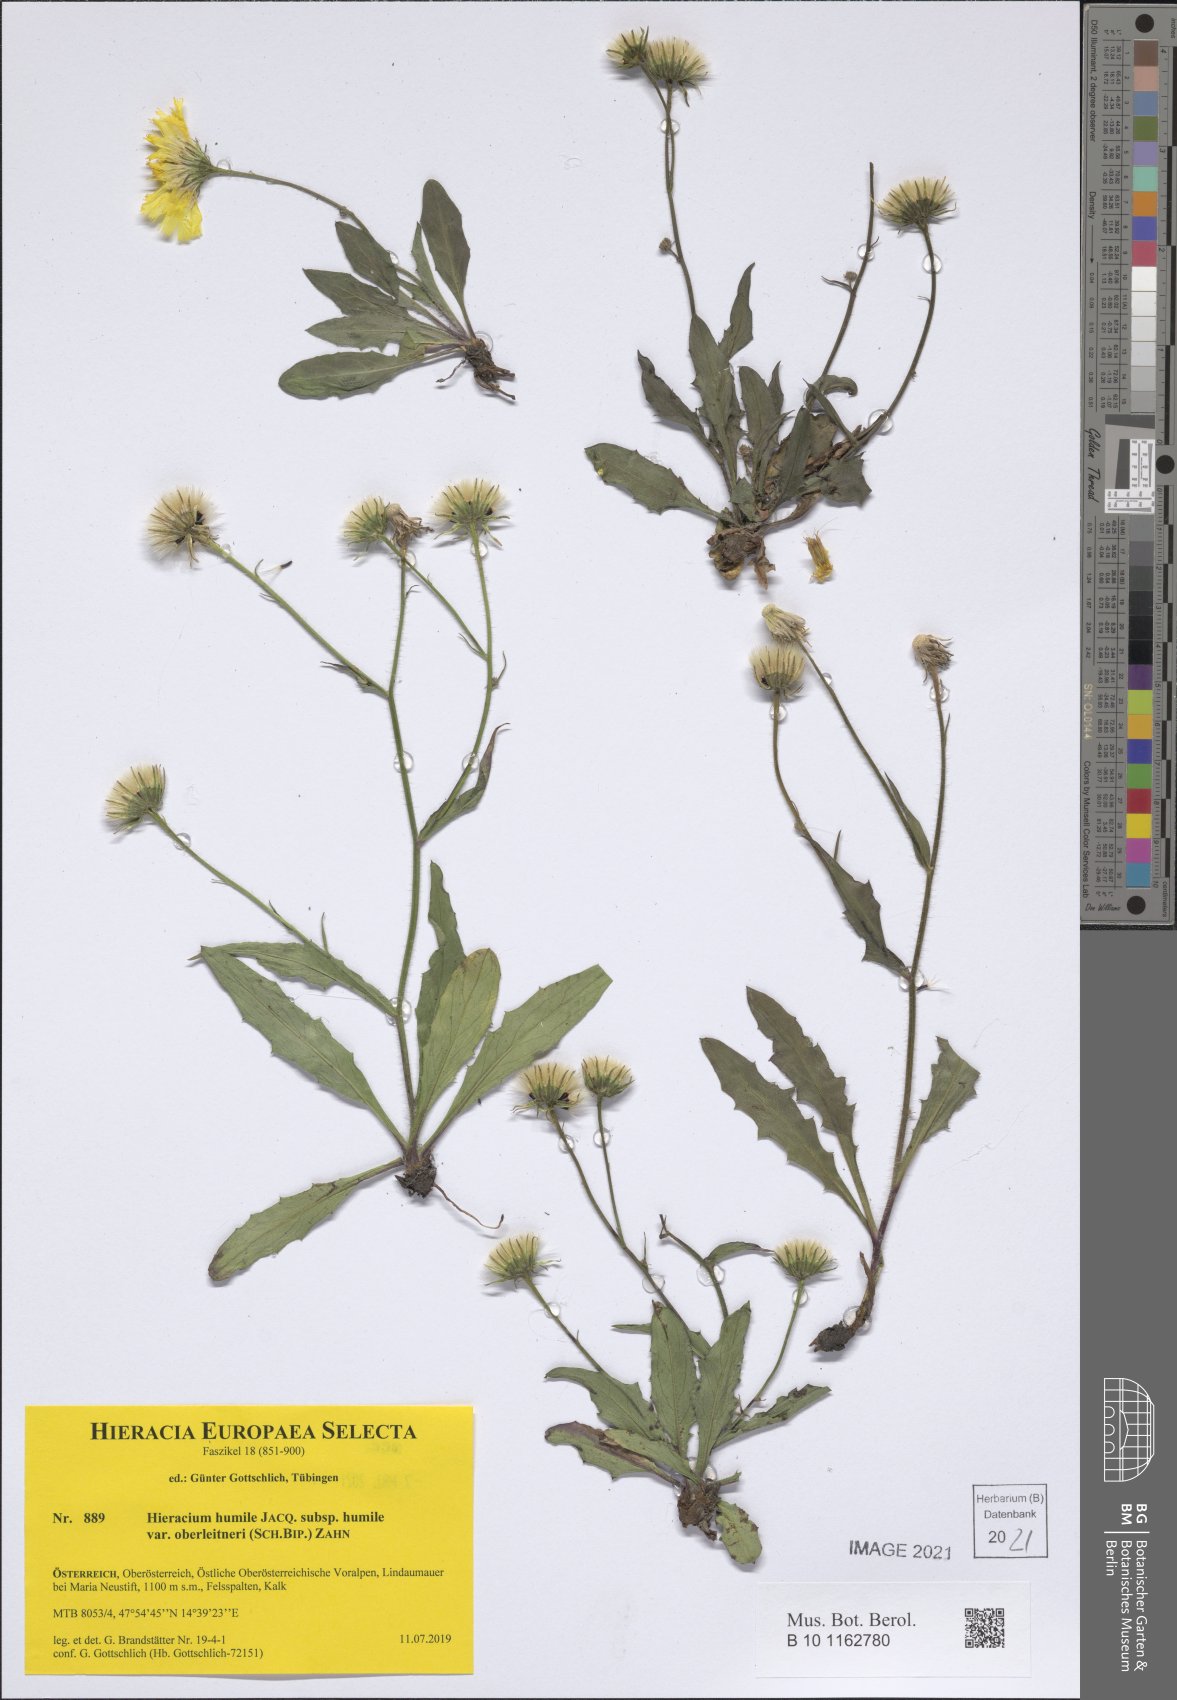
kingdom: Plantae
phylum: Tracheophyta
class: Magnoliopsida
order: Asterales
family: Asteraceae
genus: Hieracium
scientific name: Hieracium humile
